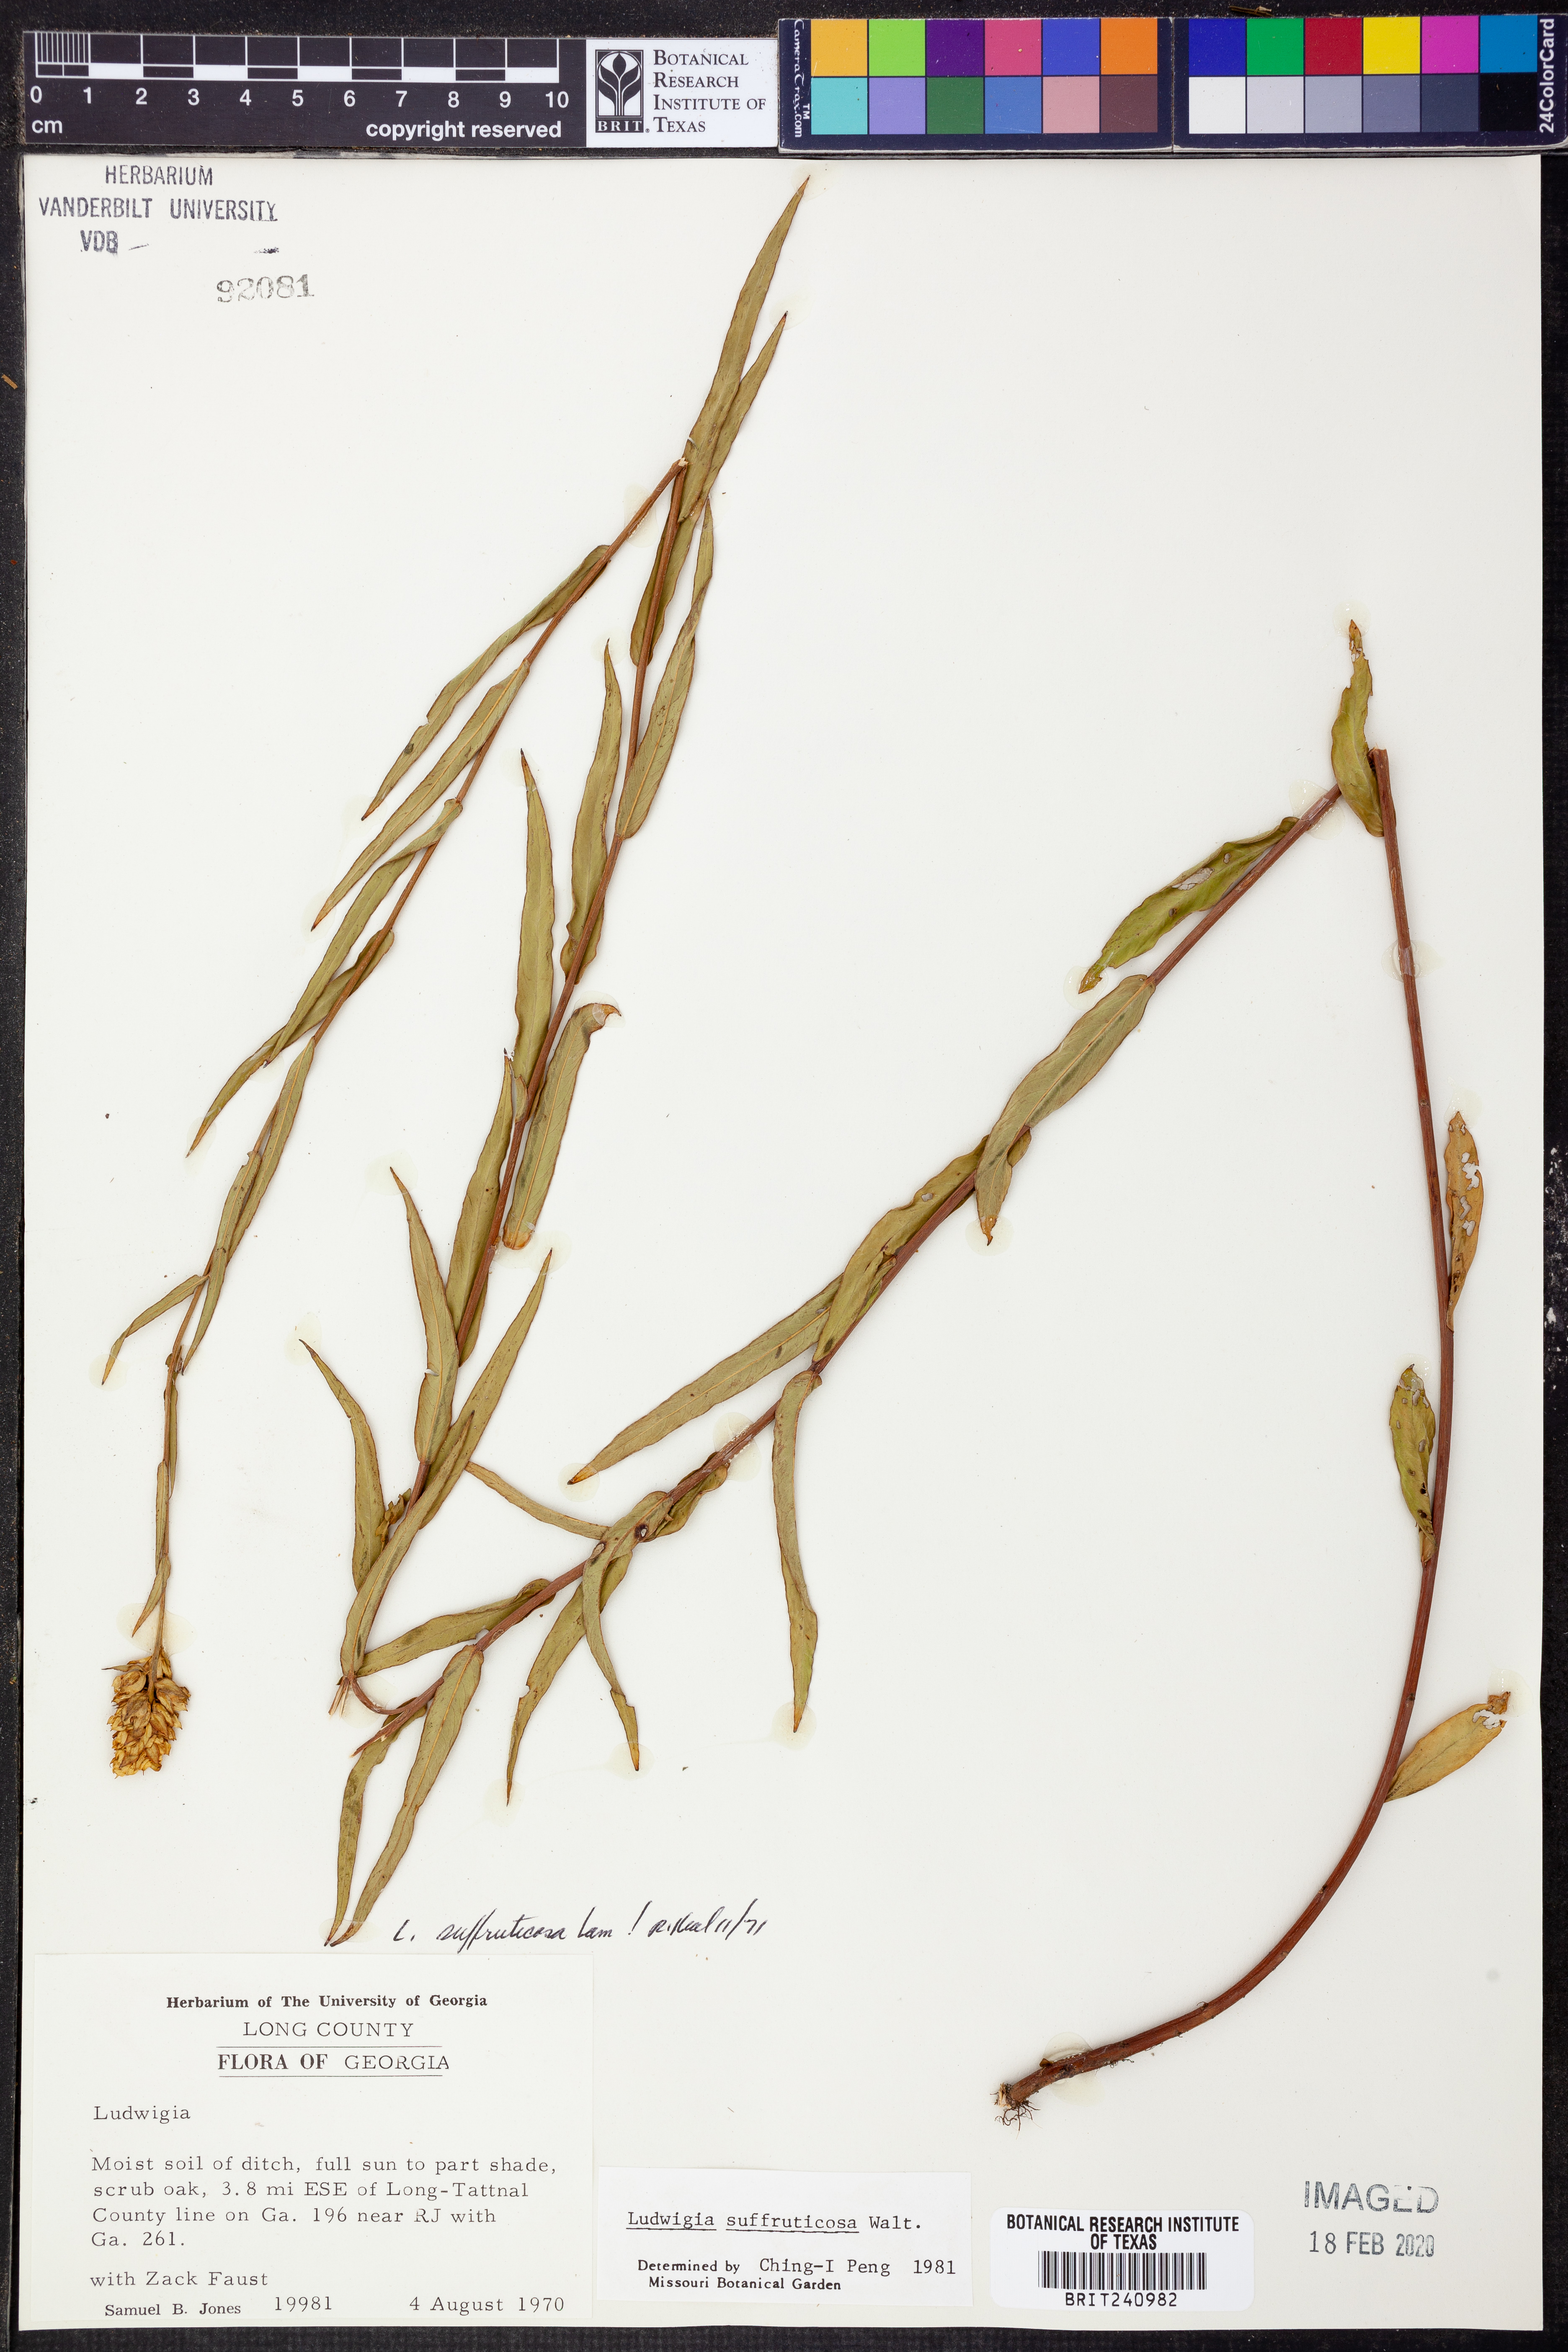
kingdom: Plantae
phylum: Tracheophyta
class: Magnoliopsida
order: Myrtales
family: Onagraceae
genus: Ludwigia
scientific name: Ludwigia suffruticosa
